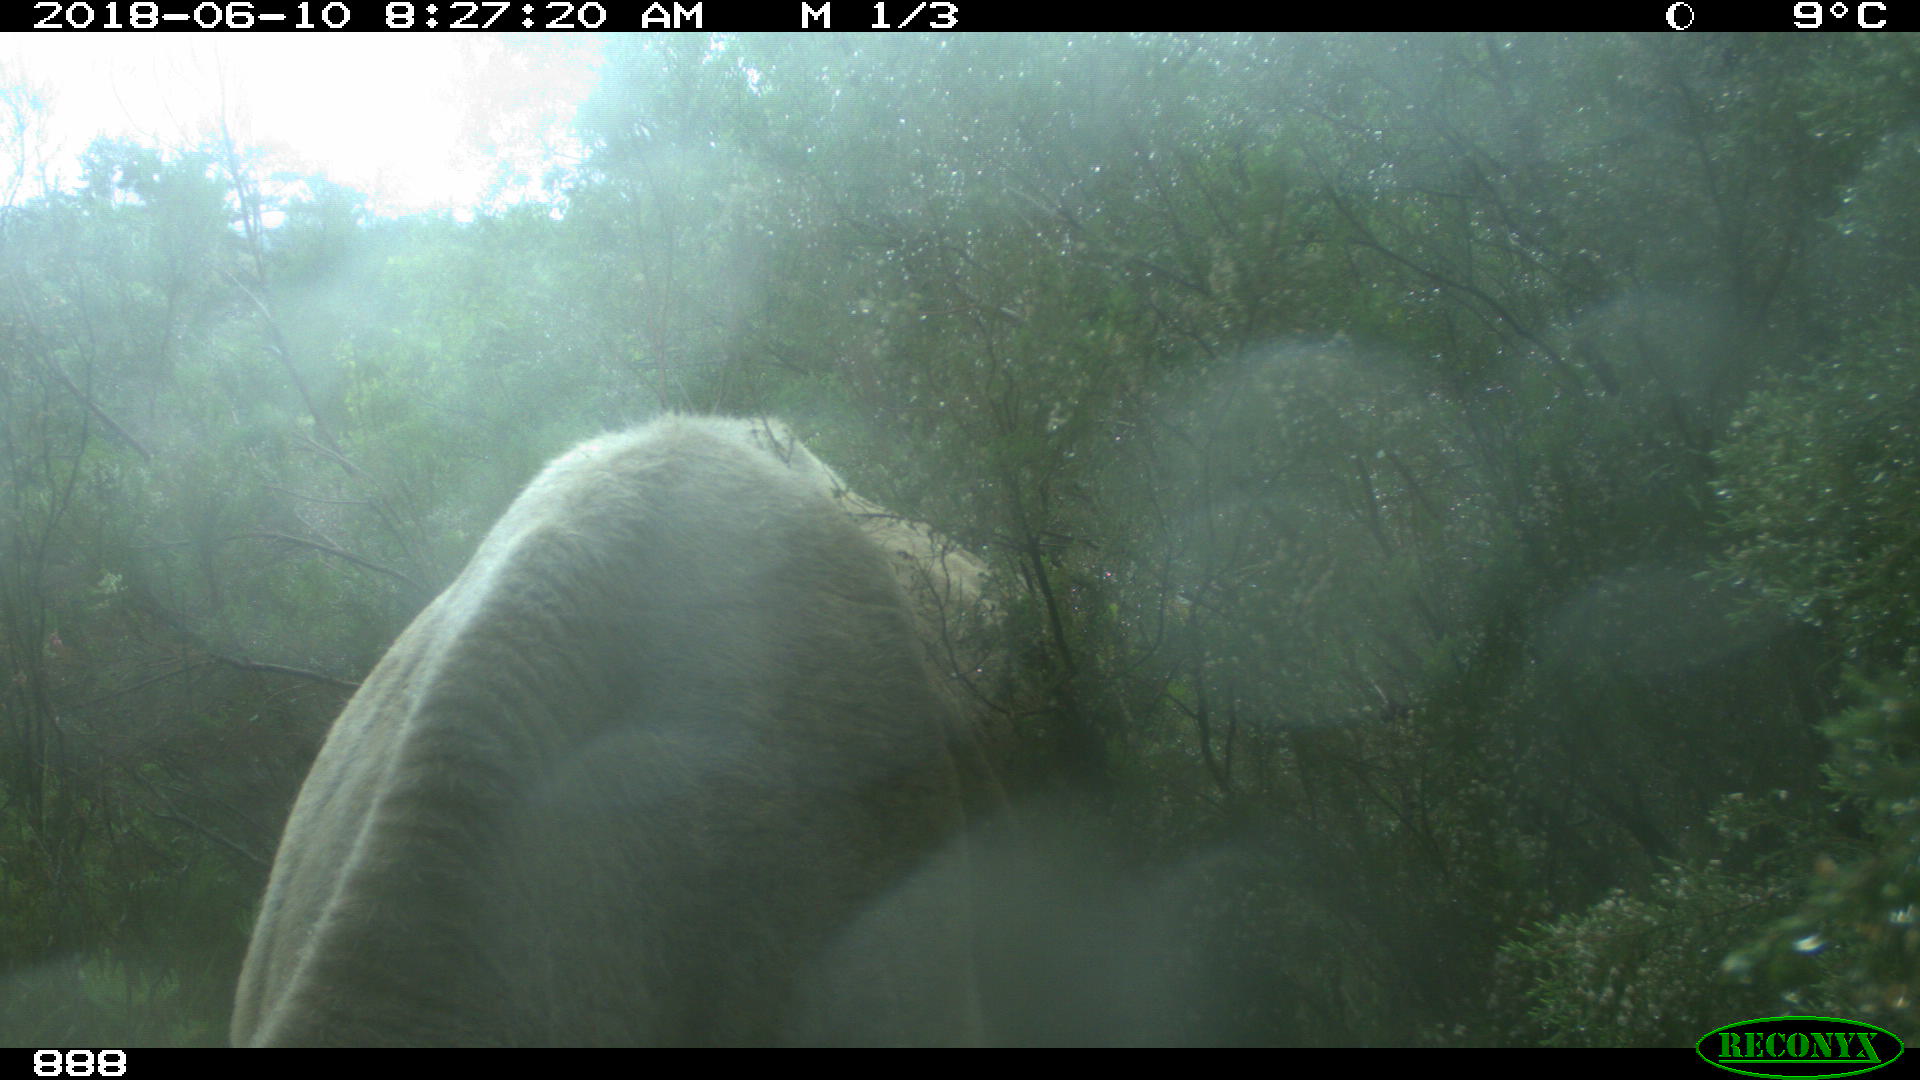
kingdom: Animalia
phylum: Chordata
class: Mammalia
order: Artiodactyla
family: Bovidae
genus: Bos
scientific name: Bos taurus
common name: Domesticated cattle
